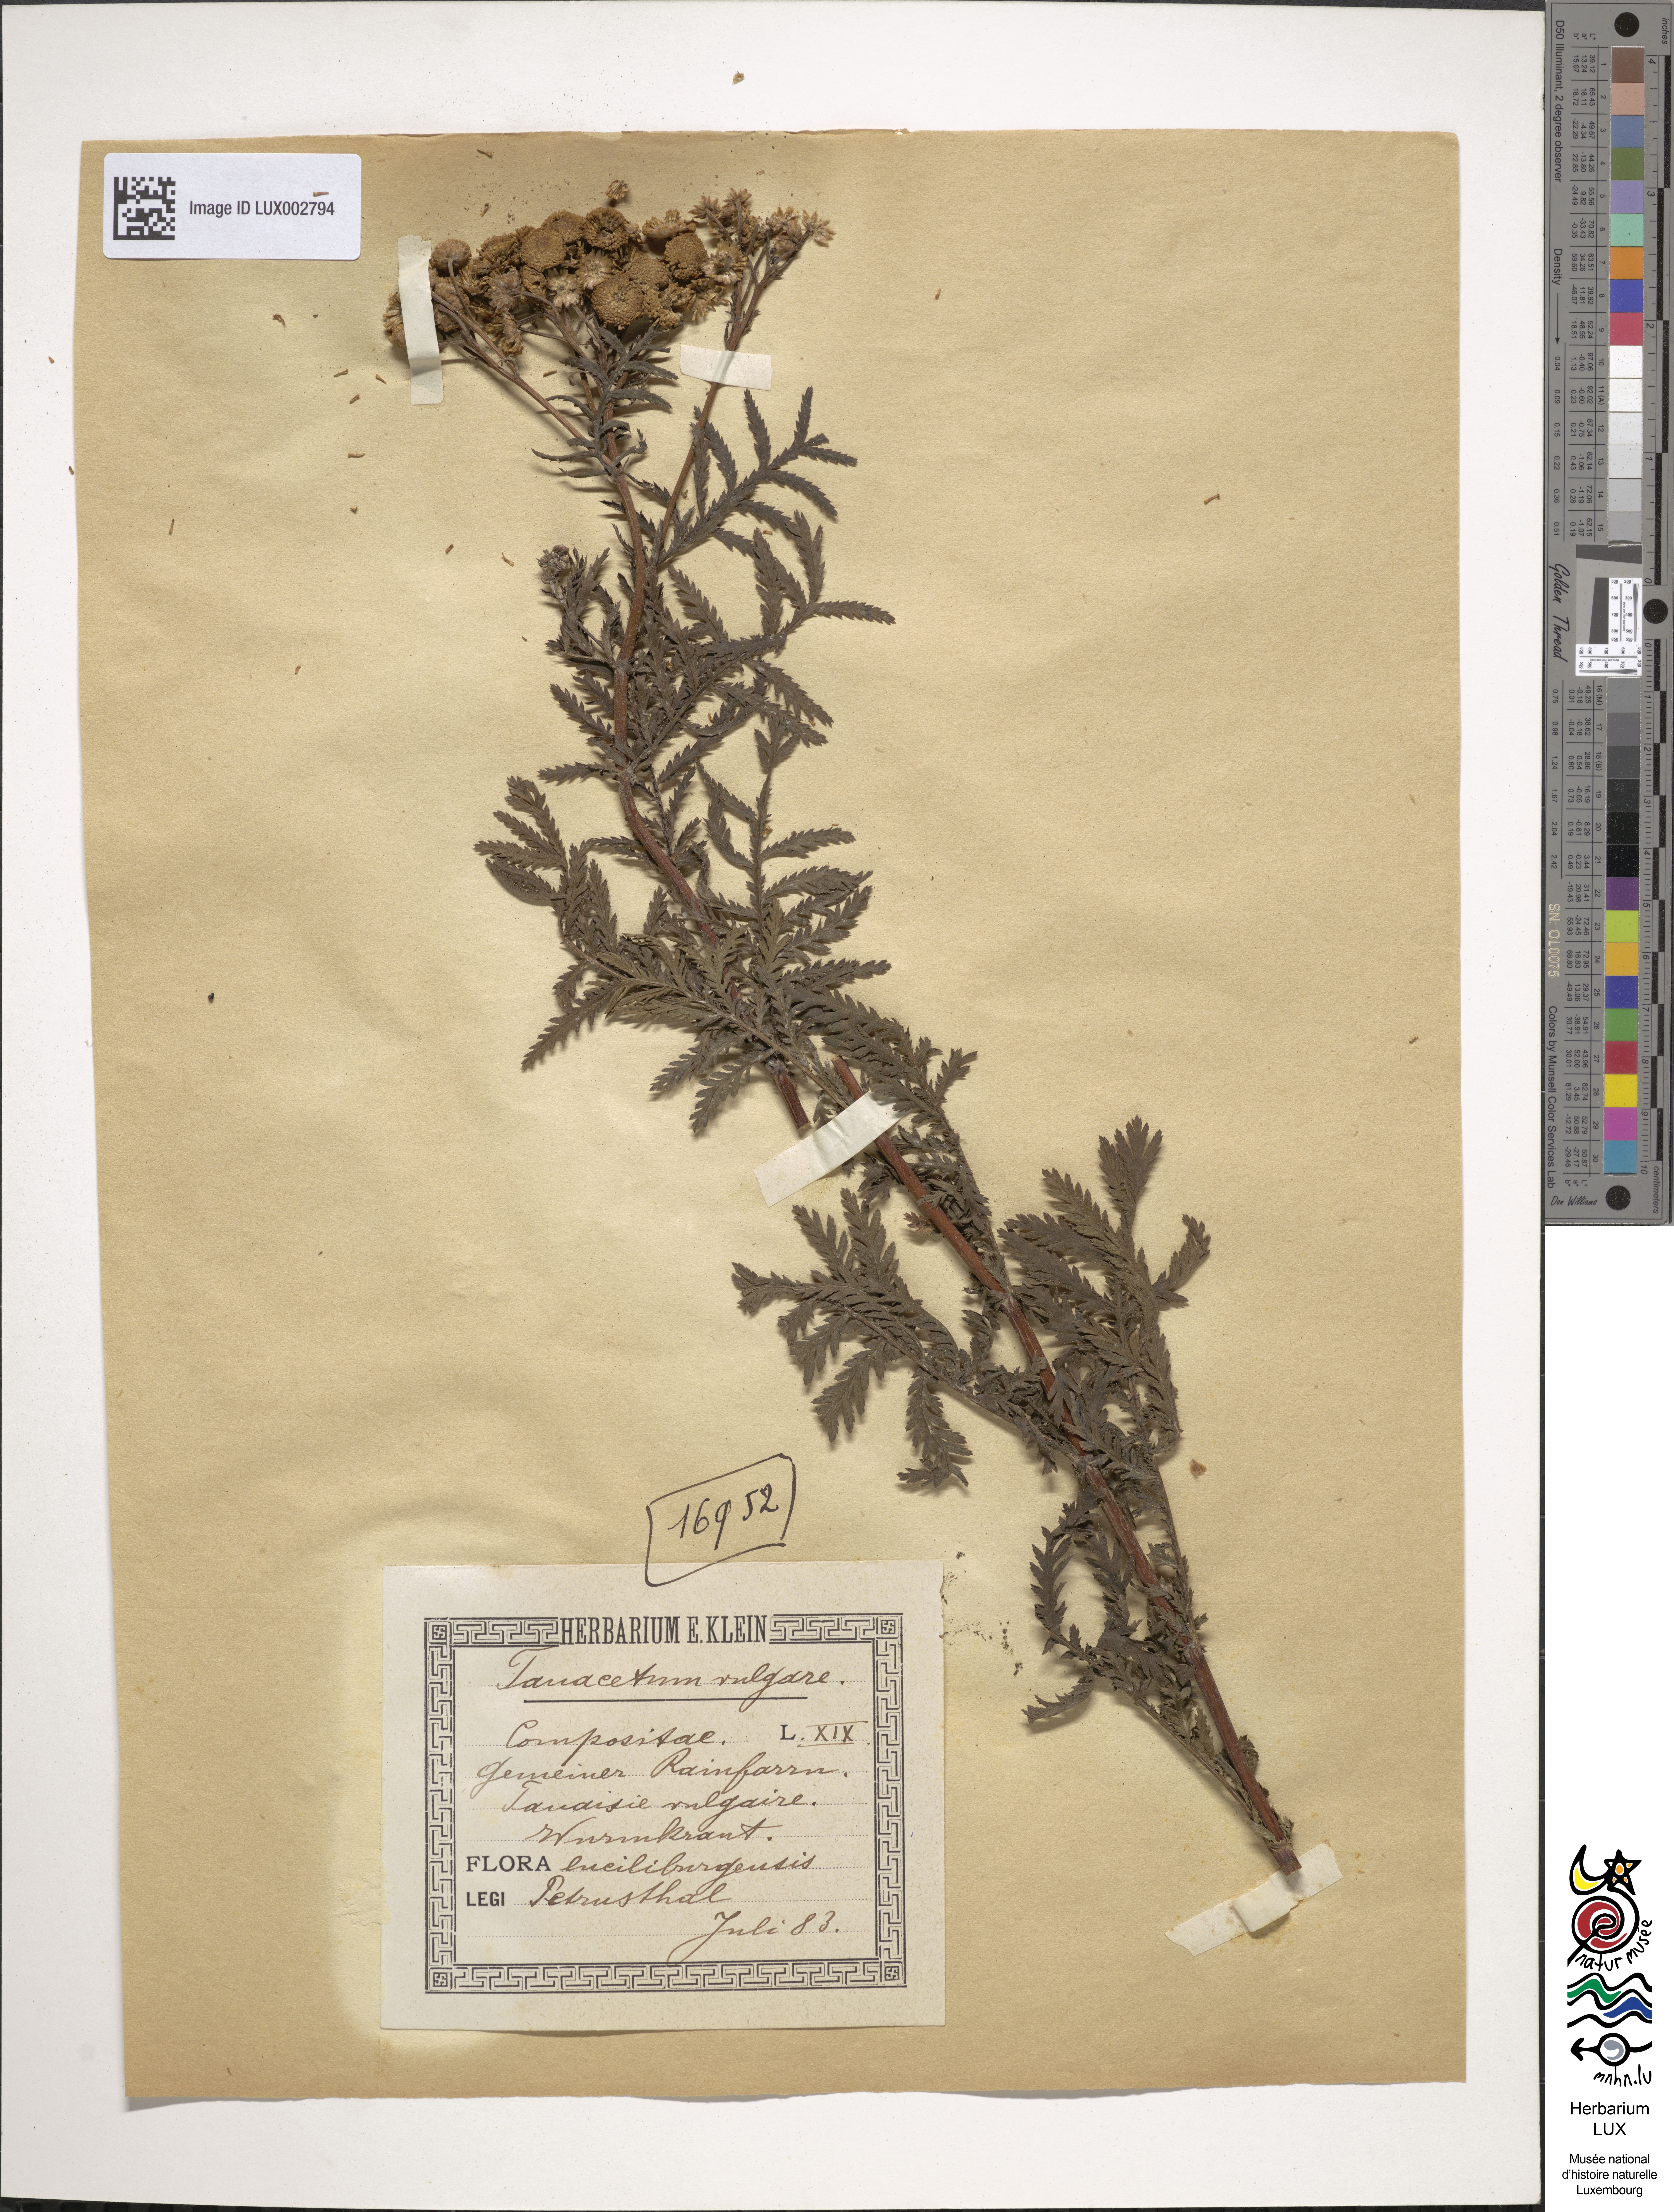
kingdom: Plantae
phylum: Tracheophyta
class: Magnoliopsida
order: Asterales
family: Asteraceae
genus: Tanacetum
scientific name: Tanacetum vulgare
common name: Common tansy
